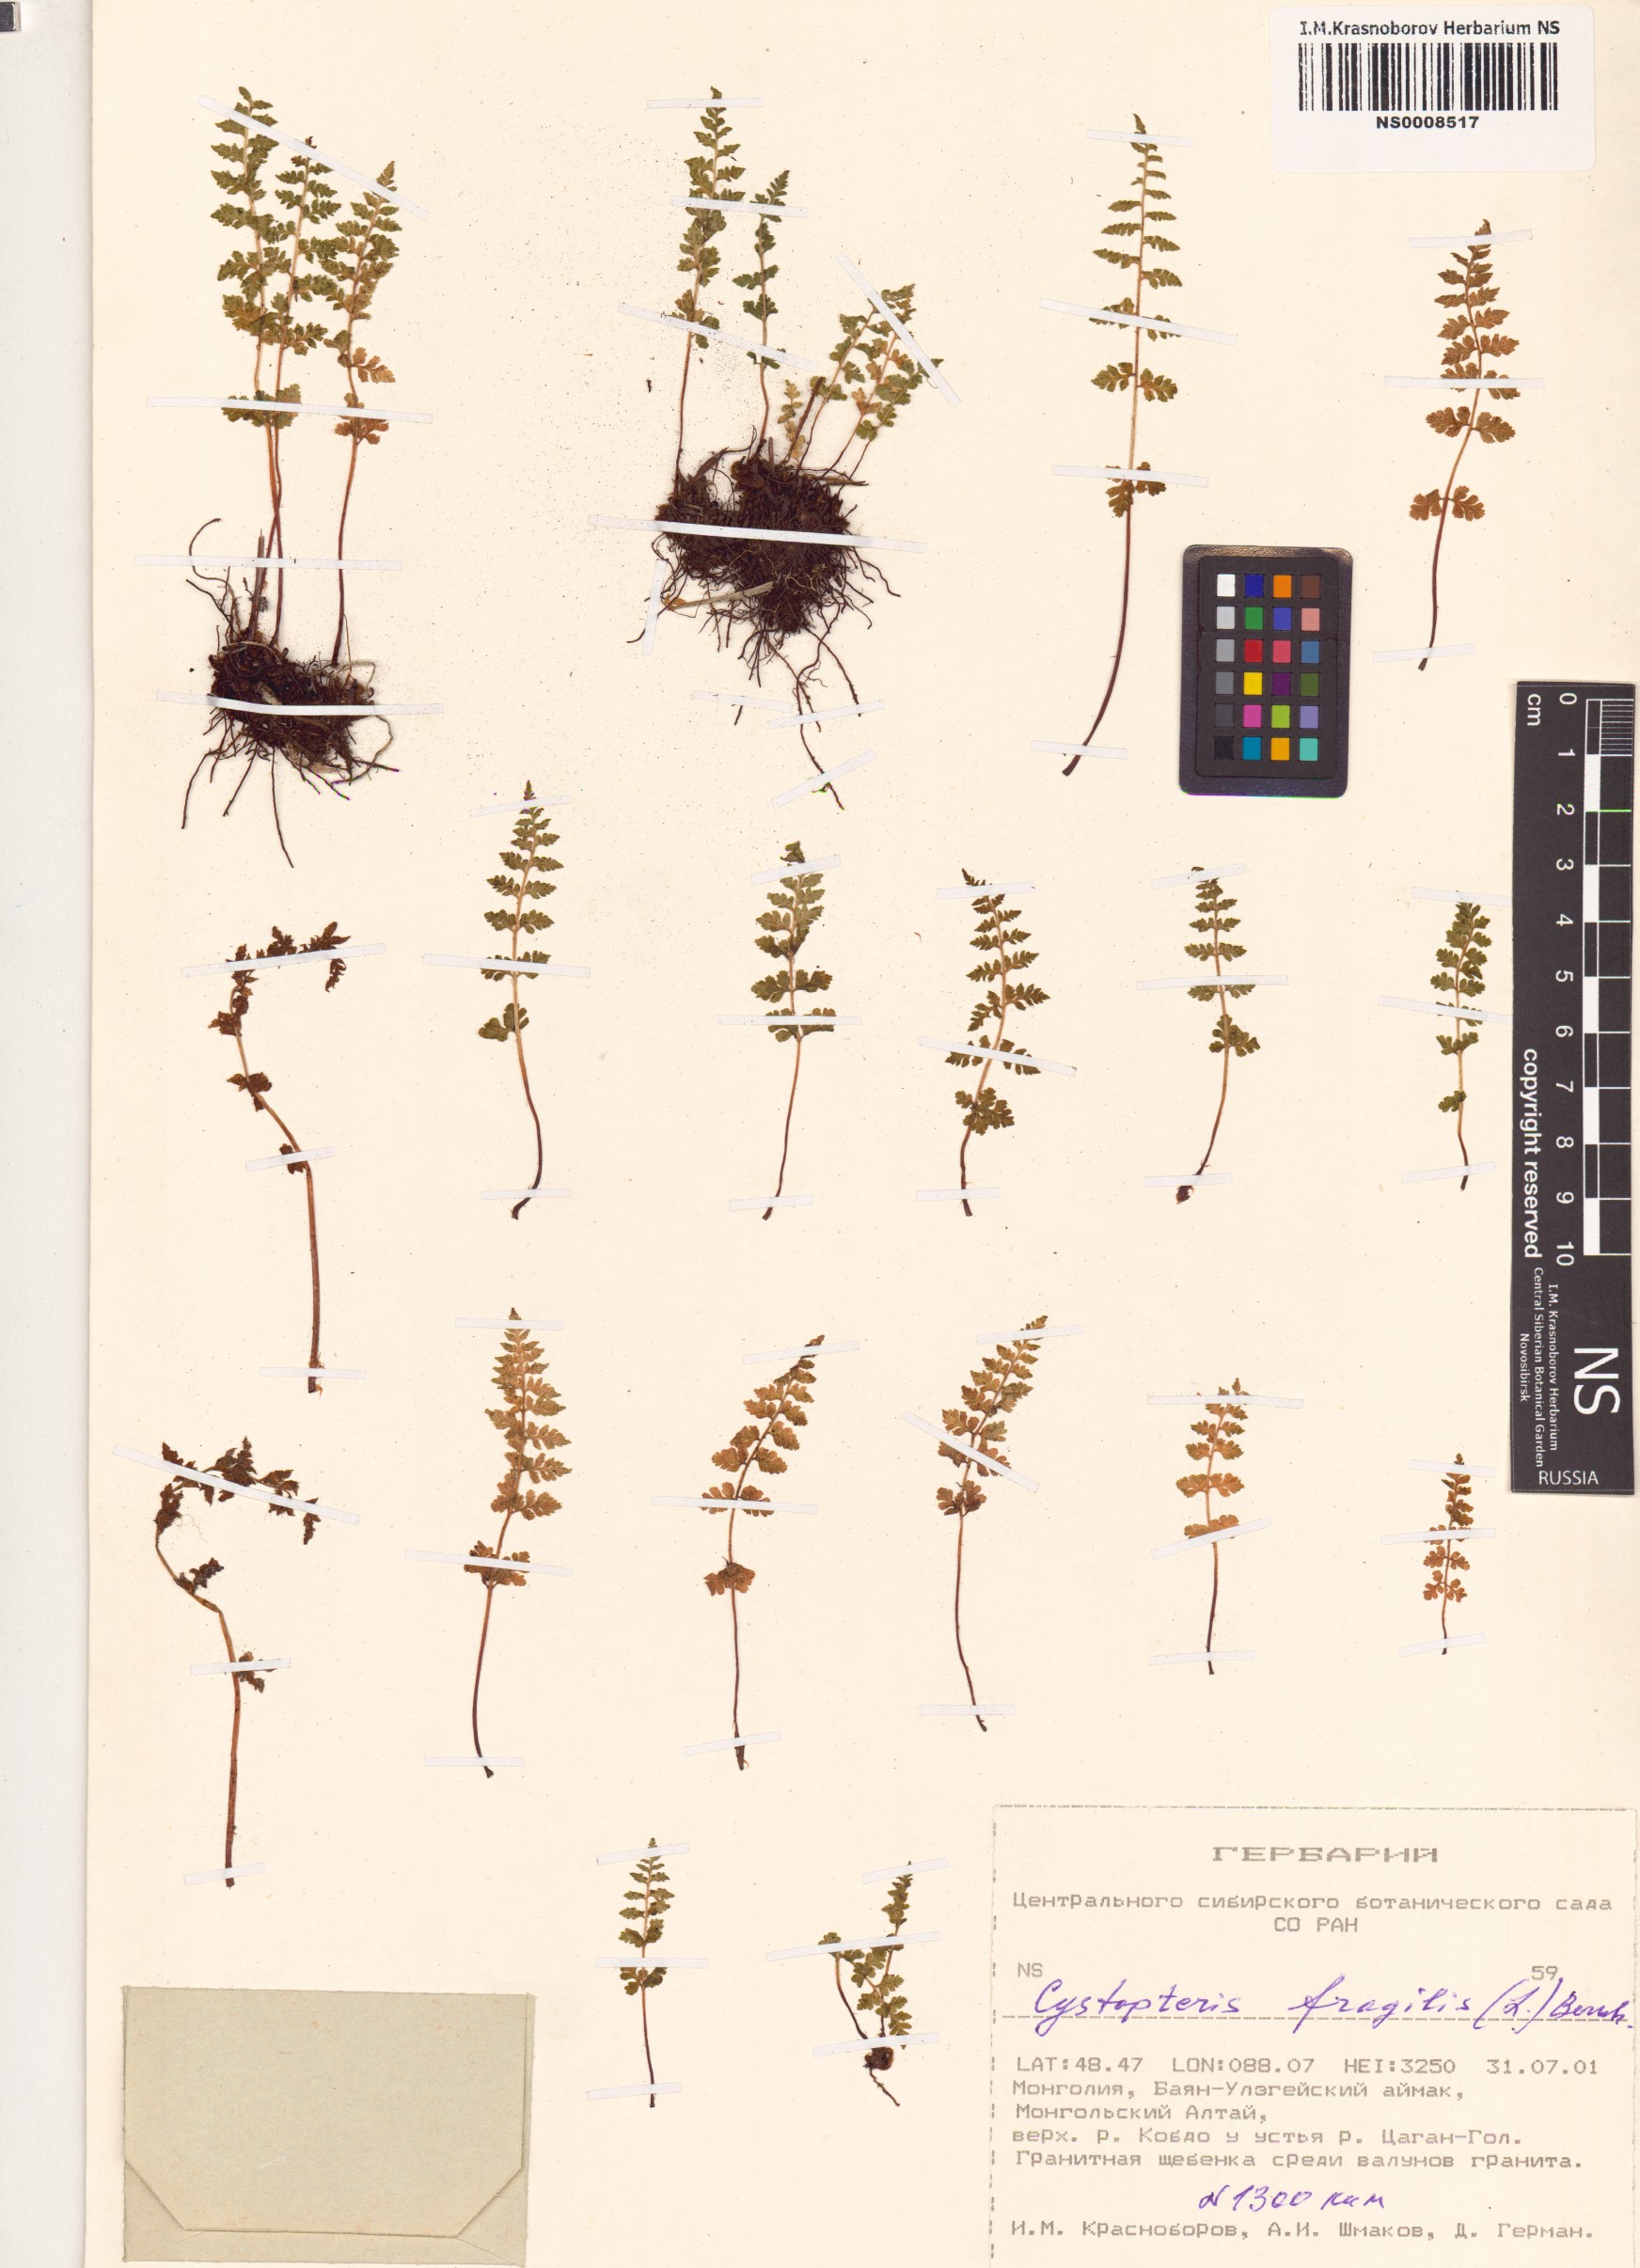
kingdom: Plantae
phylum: Tracheophyta
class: Polypodiopsida
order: Polypodiales
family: Cystopteridaceae
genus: Cystopteris
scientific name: Cystopteris fragilis
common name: Brittle bladder fern
